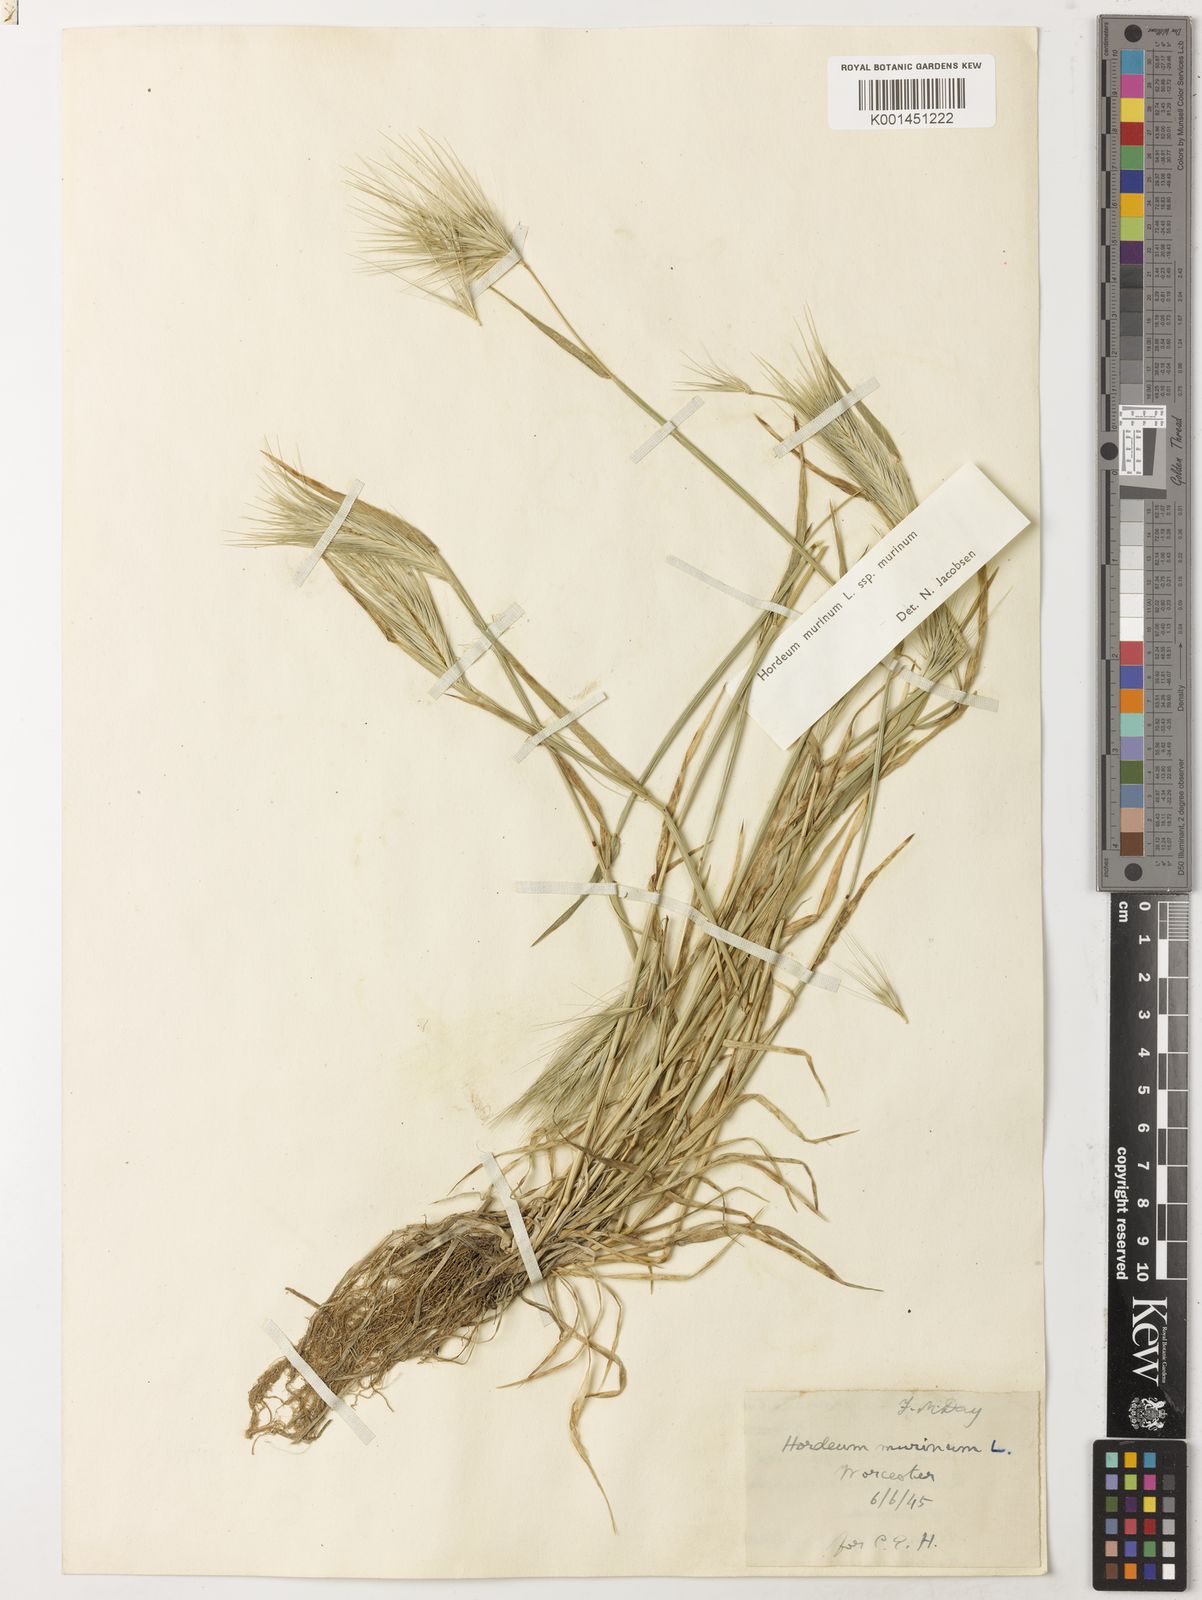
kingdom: Plantae
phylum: Tracheophyta
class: Liliopsida
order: Poales
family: Poaceae
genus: Hordeum
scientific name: Hordeum murinum
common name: Wall barley
